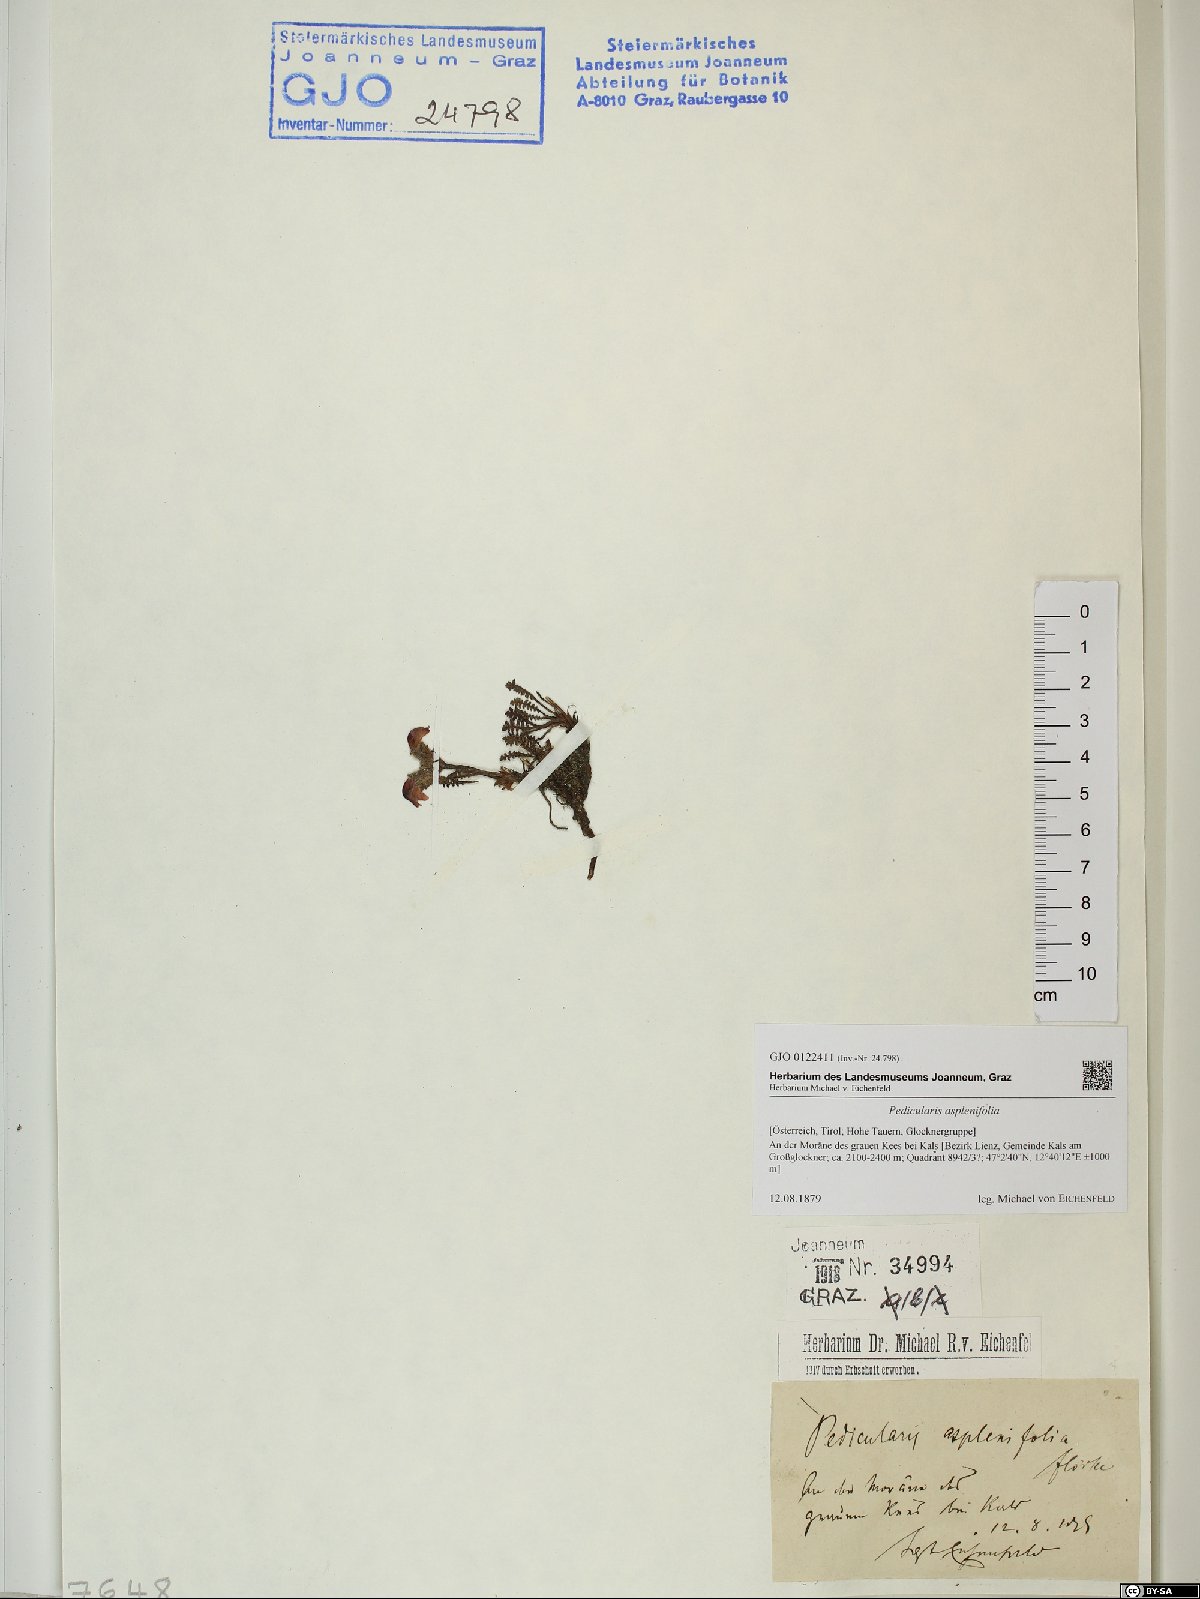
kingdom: Plantae
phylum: Tracheophyta
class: Magnoliopsida
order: Lamiales
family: Orobanchaceae
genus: Pedicularis
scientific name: Pedicularis asplenifolia
